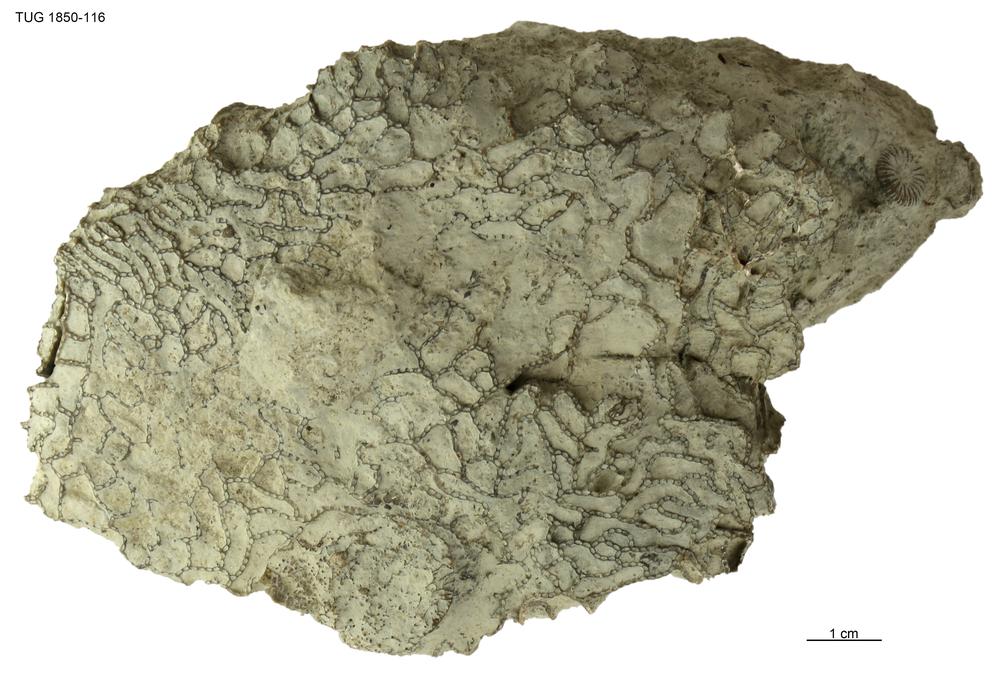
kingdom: Animalia
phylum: Cnidaria
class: Anthozoa
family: Halysitidae
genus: Halysites
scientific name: Halysites
